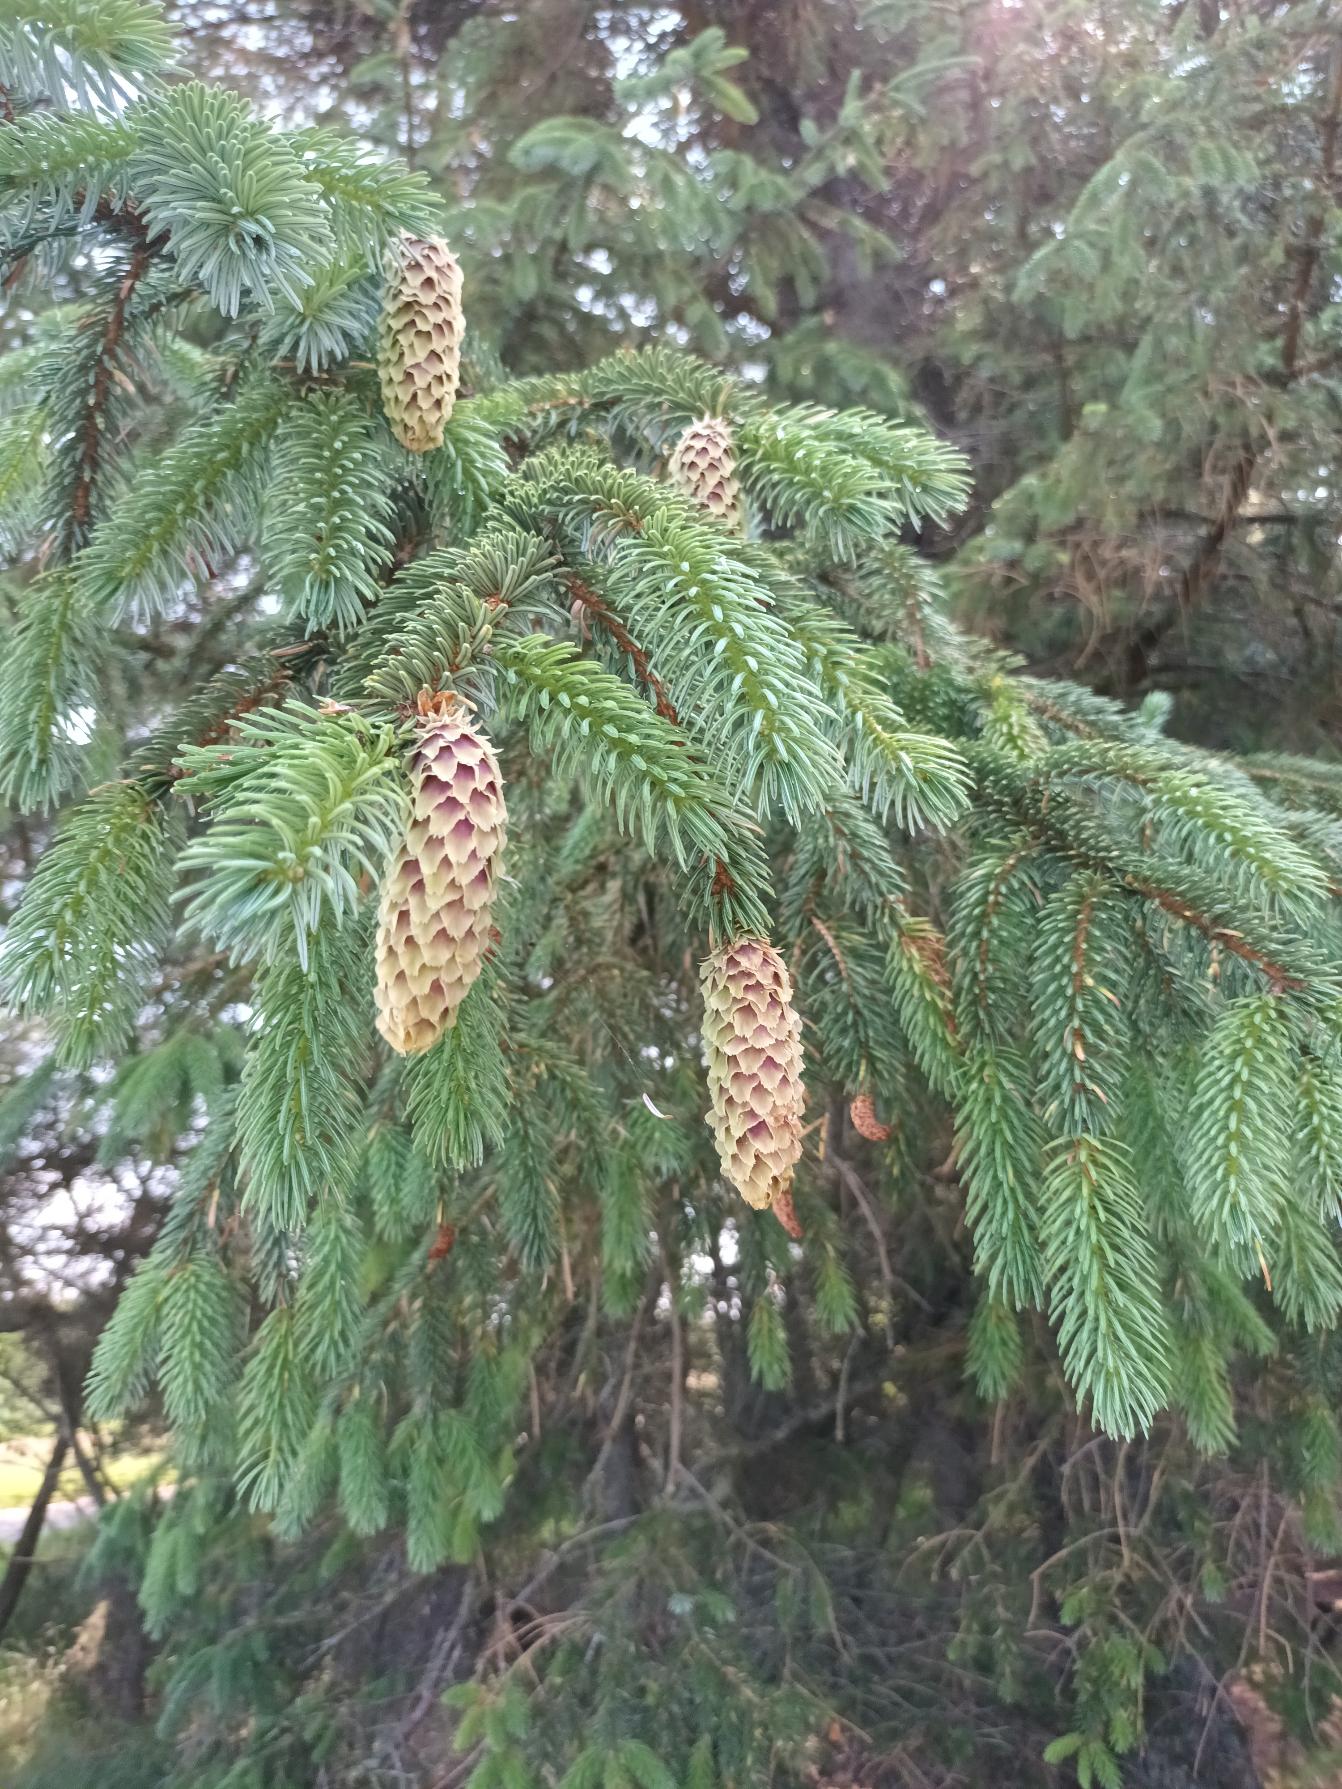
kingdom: Plantae
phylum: Tracheophyta
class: Pinopsida
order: Pinales
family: Pinaceae
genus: Picea
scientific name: Picea sitchensis
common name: Sitka-gran
